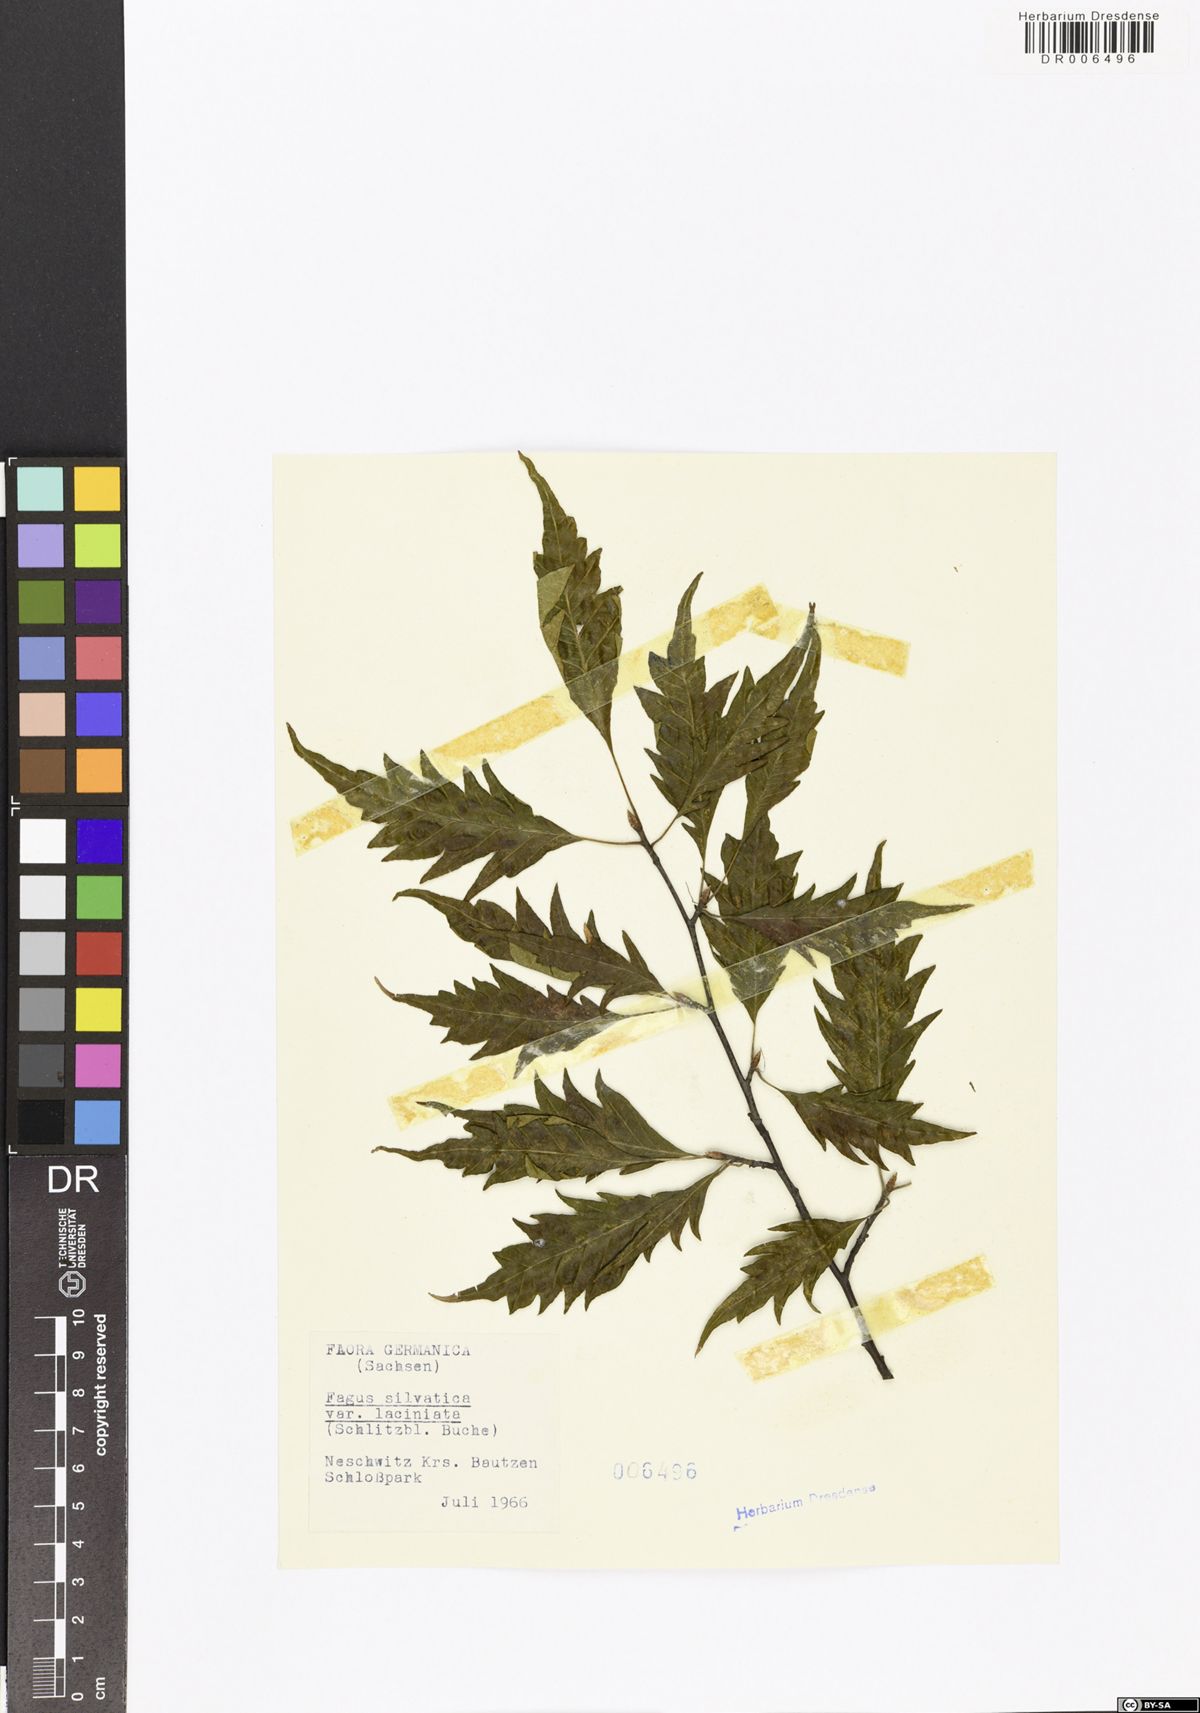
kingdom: Plantae
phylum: Tracheophyta
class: Magnoliopsida
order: Fagales
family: Fagaceae
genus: Fagus
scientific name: Fagus sylvatica
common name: Beech
